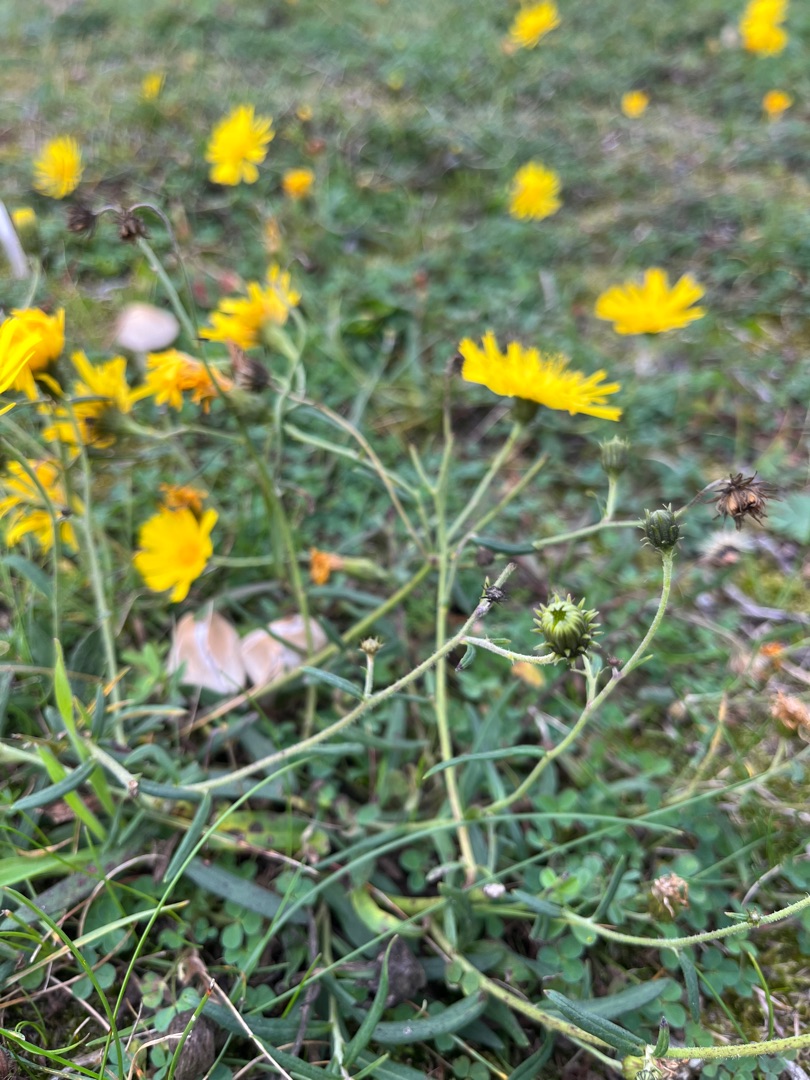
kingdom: Plantae
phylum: Tracheophyta
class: Magnoliopsida
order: Asterales
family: Asteraceae
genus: Hieracium
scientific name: Hieracium umbellatum
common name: Smalbladet høgeurt
